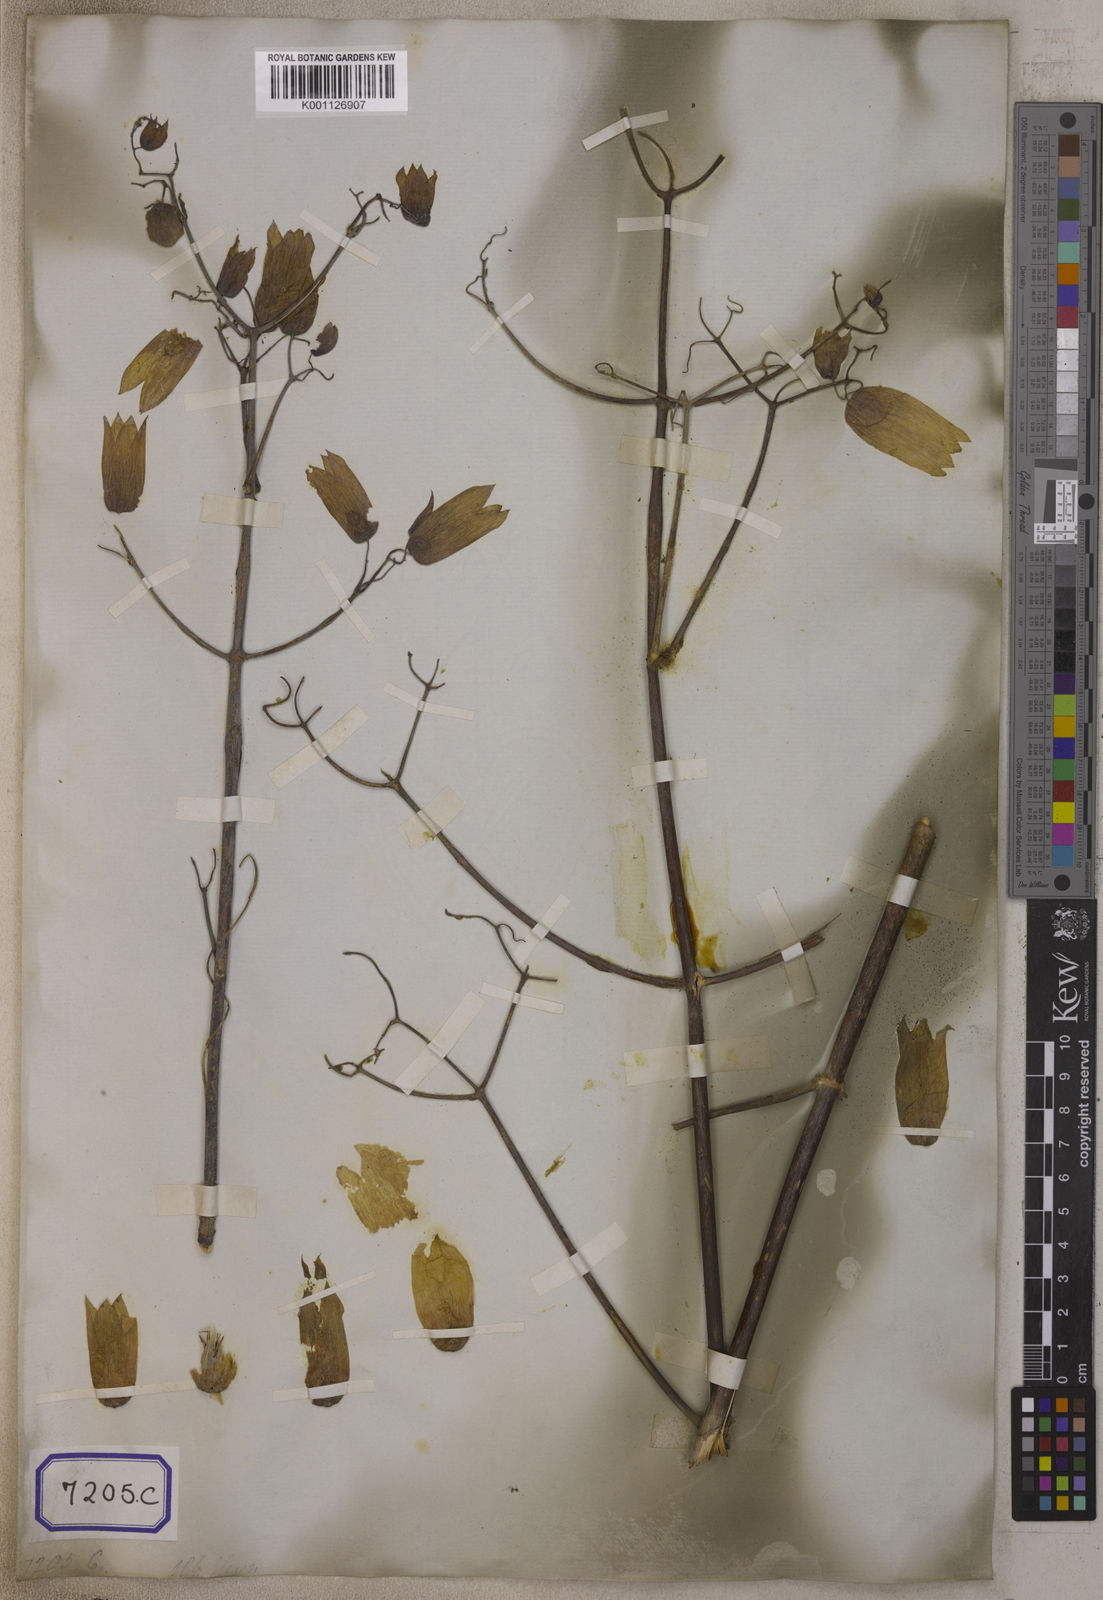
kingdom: Plantae
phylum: Tracheophyta
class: Magnoliopsida
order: Saxifragales
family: Crassulaceae
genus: Kalanchoe
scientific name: Kalanchoe pinnata
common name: Cathedral bells
